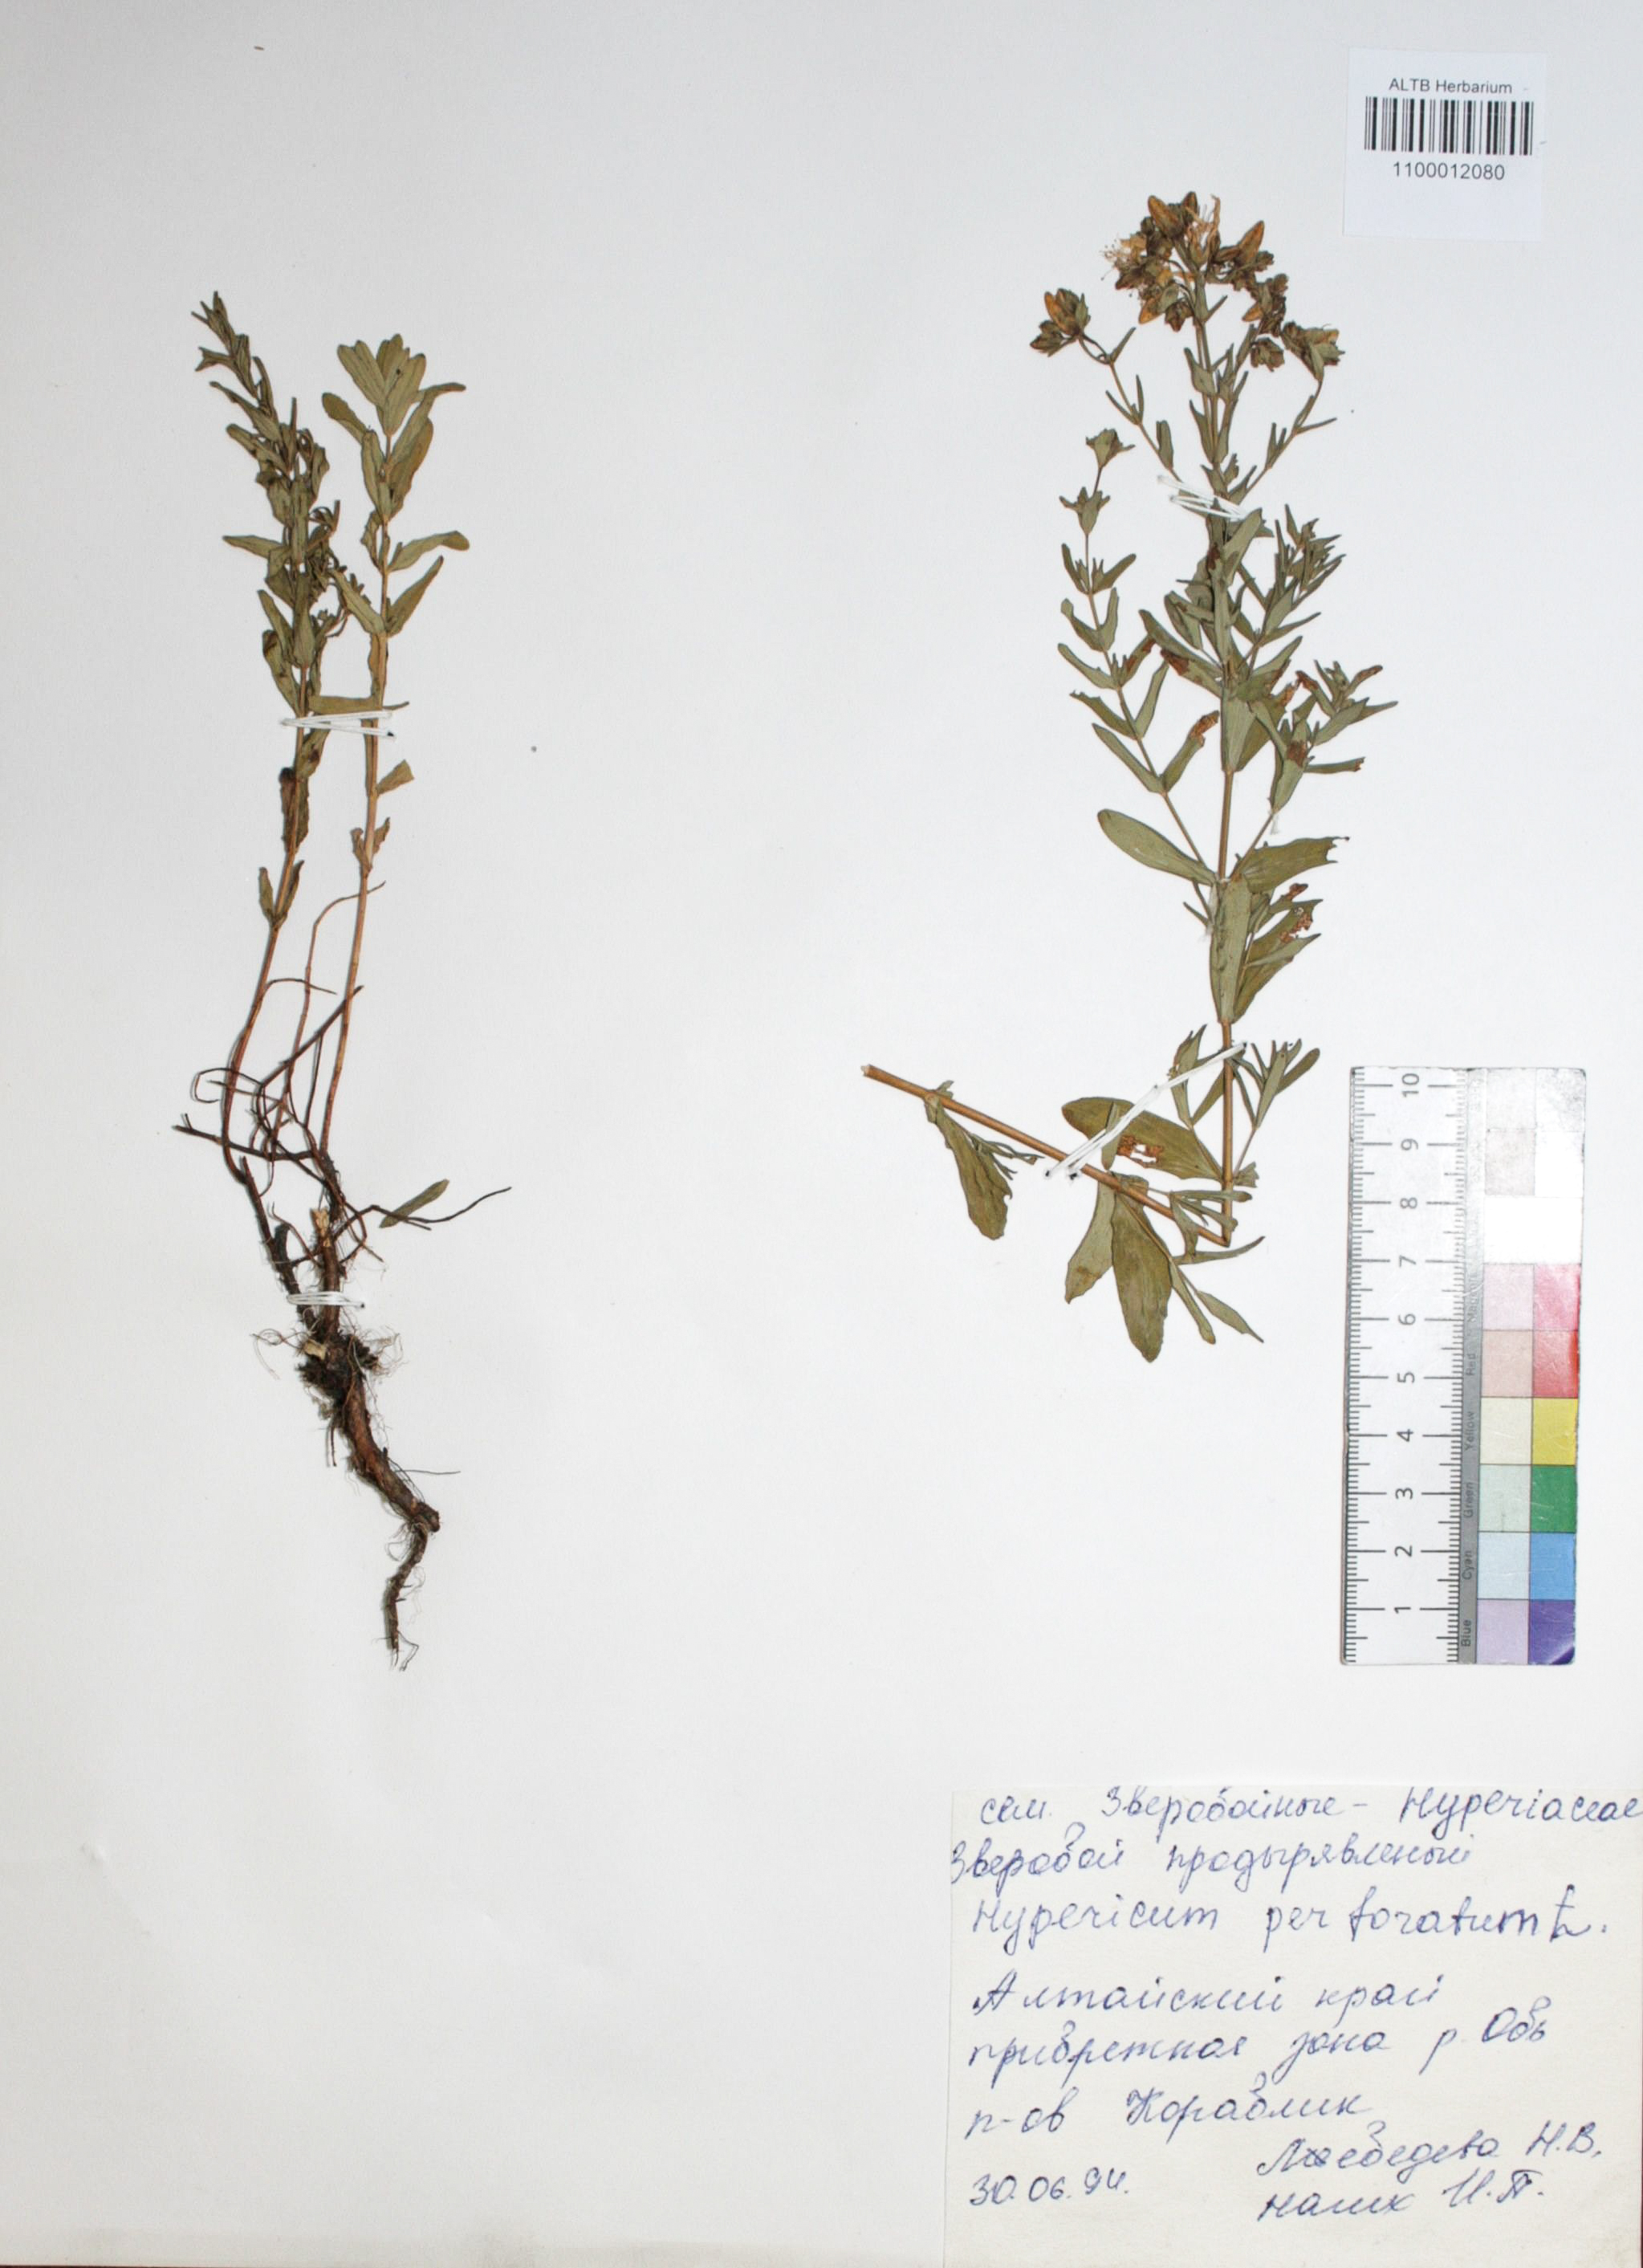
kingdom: Plantae
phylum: Tracheophyta
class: Magnoliopsida
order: Malpighiales
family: Hypericaceae
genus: Hypericum
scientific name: Hypericum perforatum
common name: Common st. johnswort
